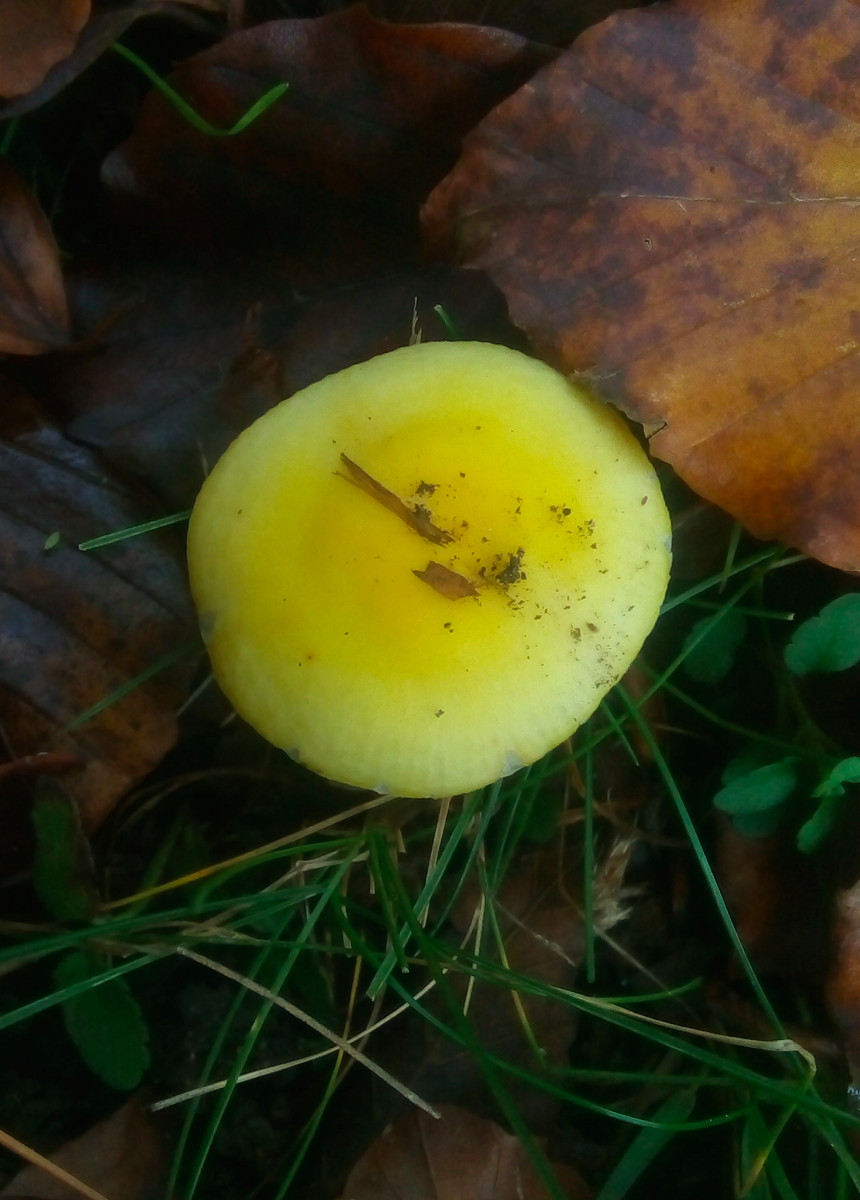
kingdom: Fungi
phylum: Basidiomycota
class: Agaricomycetes
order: Russulales
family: Russulaceae
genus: Russula
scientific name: Russula solaris
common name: sol-skørhat
